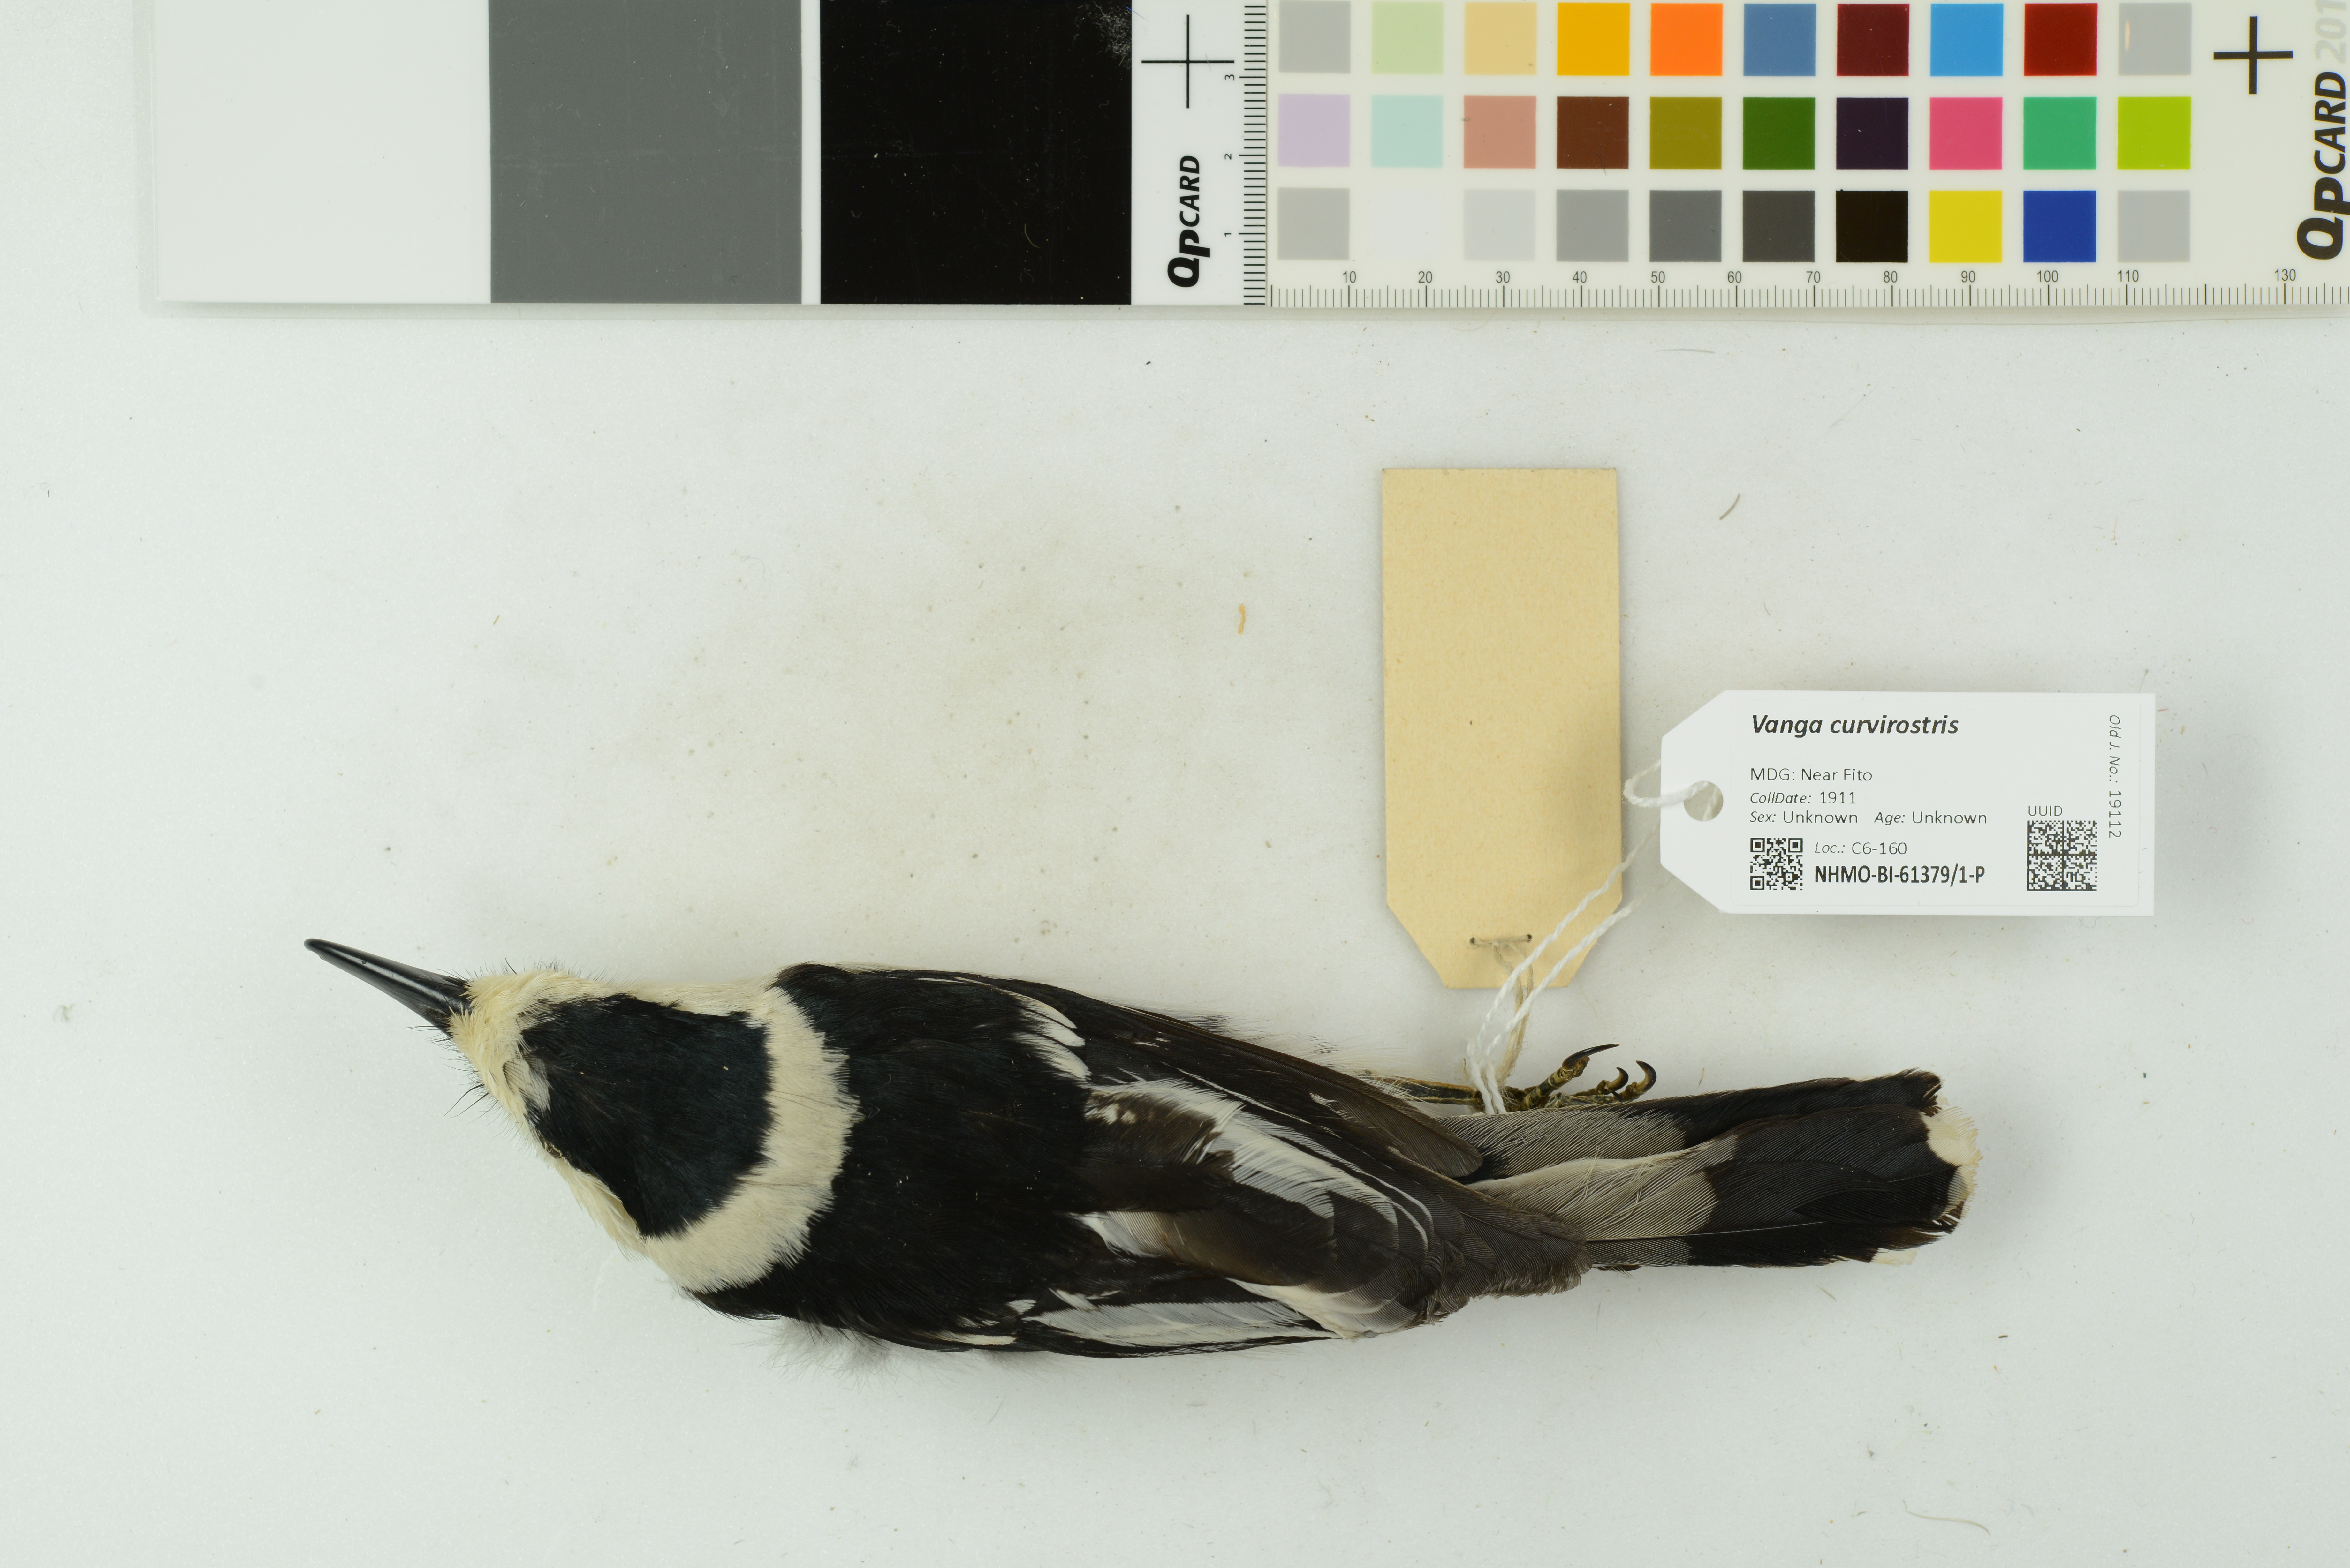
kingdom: Animalia
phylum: Chordata
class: Aves
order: Passeriformes
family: Vangidae
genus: Vanga
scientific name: Vanga curvirostris
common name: Hook-billed vanga
